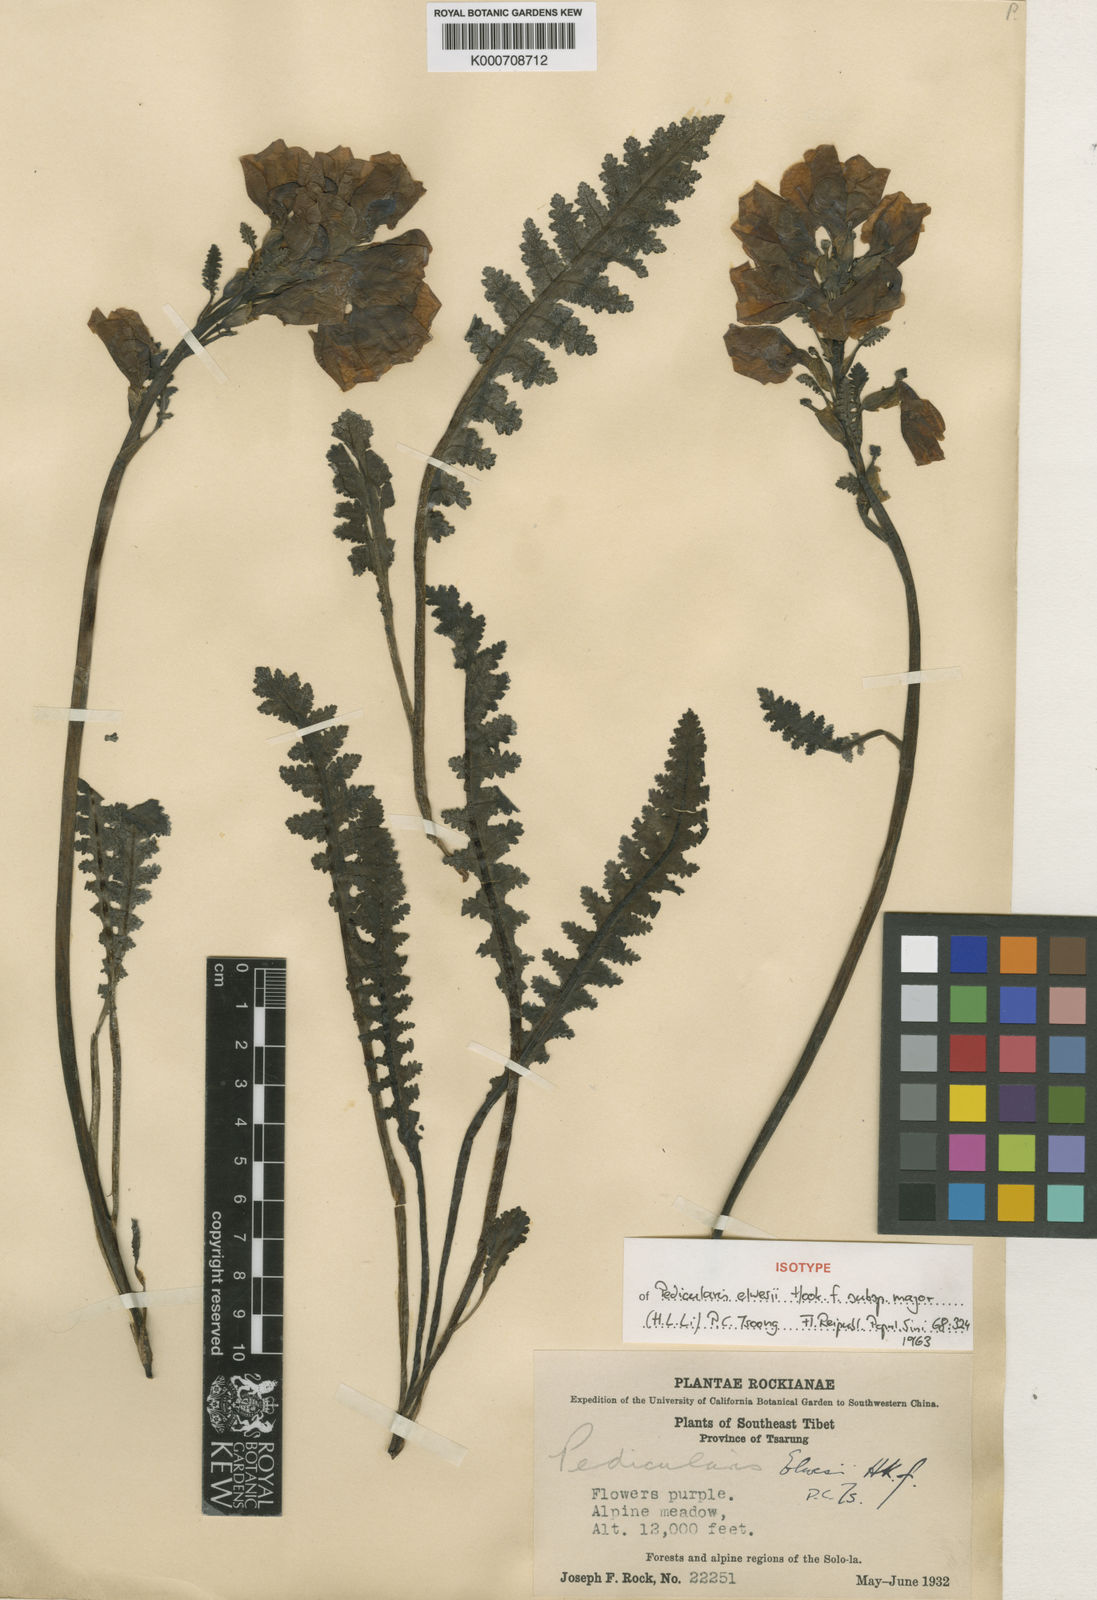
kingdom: Plantae
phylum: Tracheophyta
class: Magnoliopsida
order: Lamiales
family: Orobanchaceae
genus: Pedicularis
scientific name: Pedicularis
